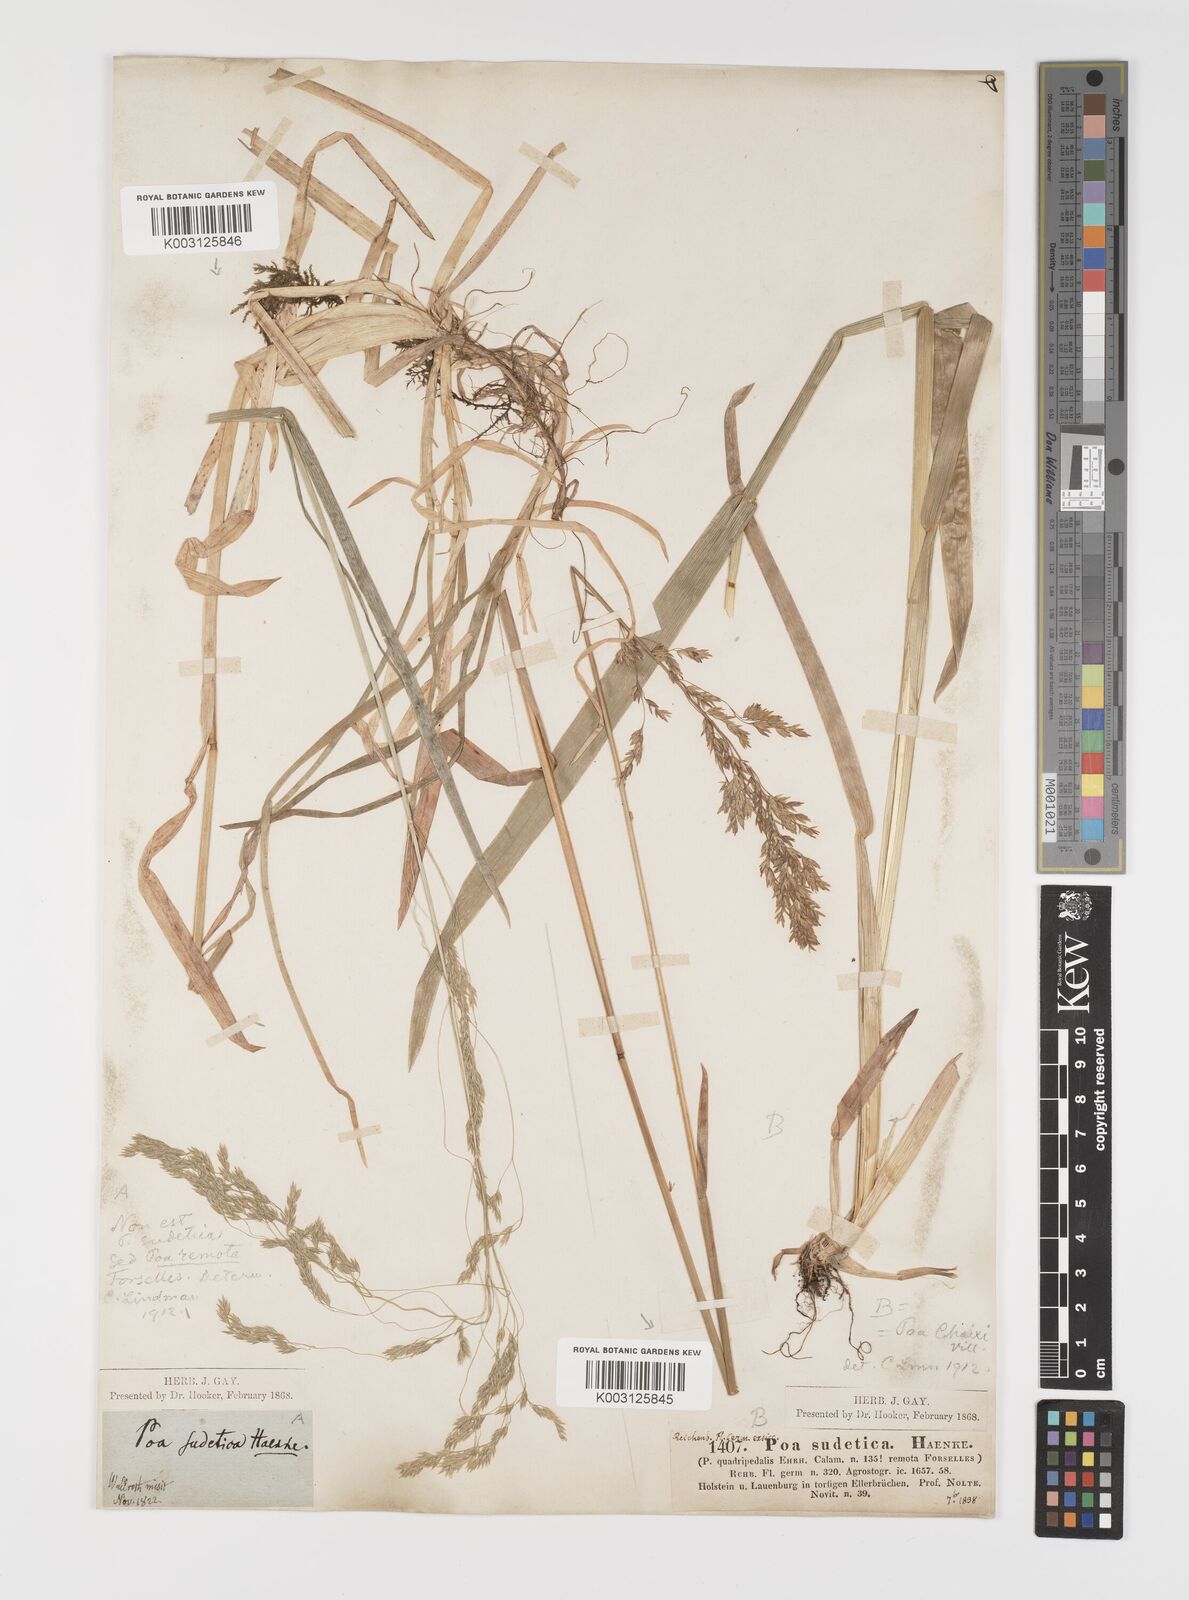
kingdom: Plantae
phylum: Tracheophyta
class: Liliopsida
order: Poales
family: Poaceae
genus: Poa
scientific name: Poa remota
